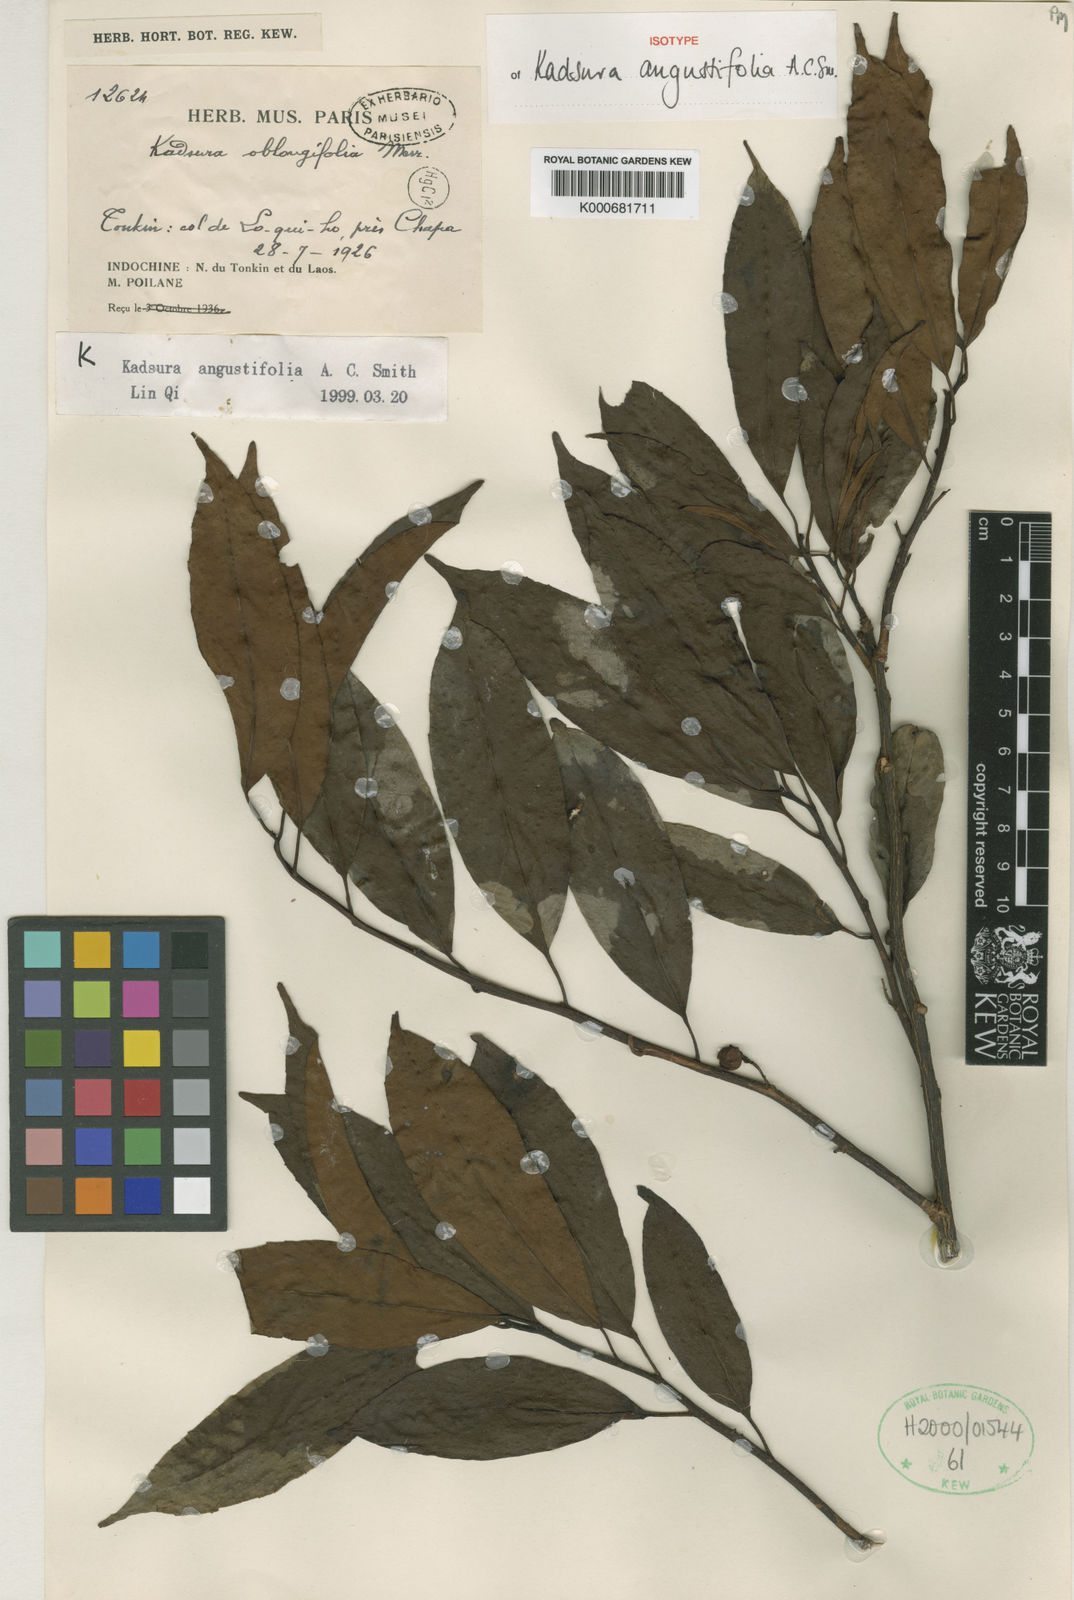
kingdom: Plantae
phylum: Tracheophyta
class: Magnoliopsida
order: Austrobaileyales
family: Schisandraceae
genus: Kadsura
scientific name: Kadsura angustifolia
